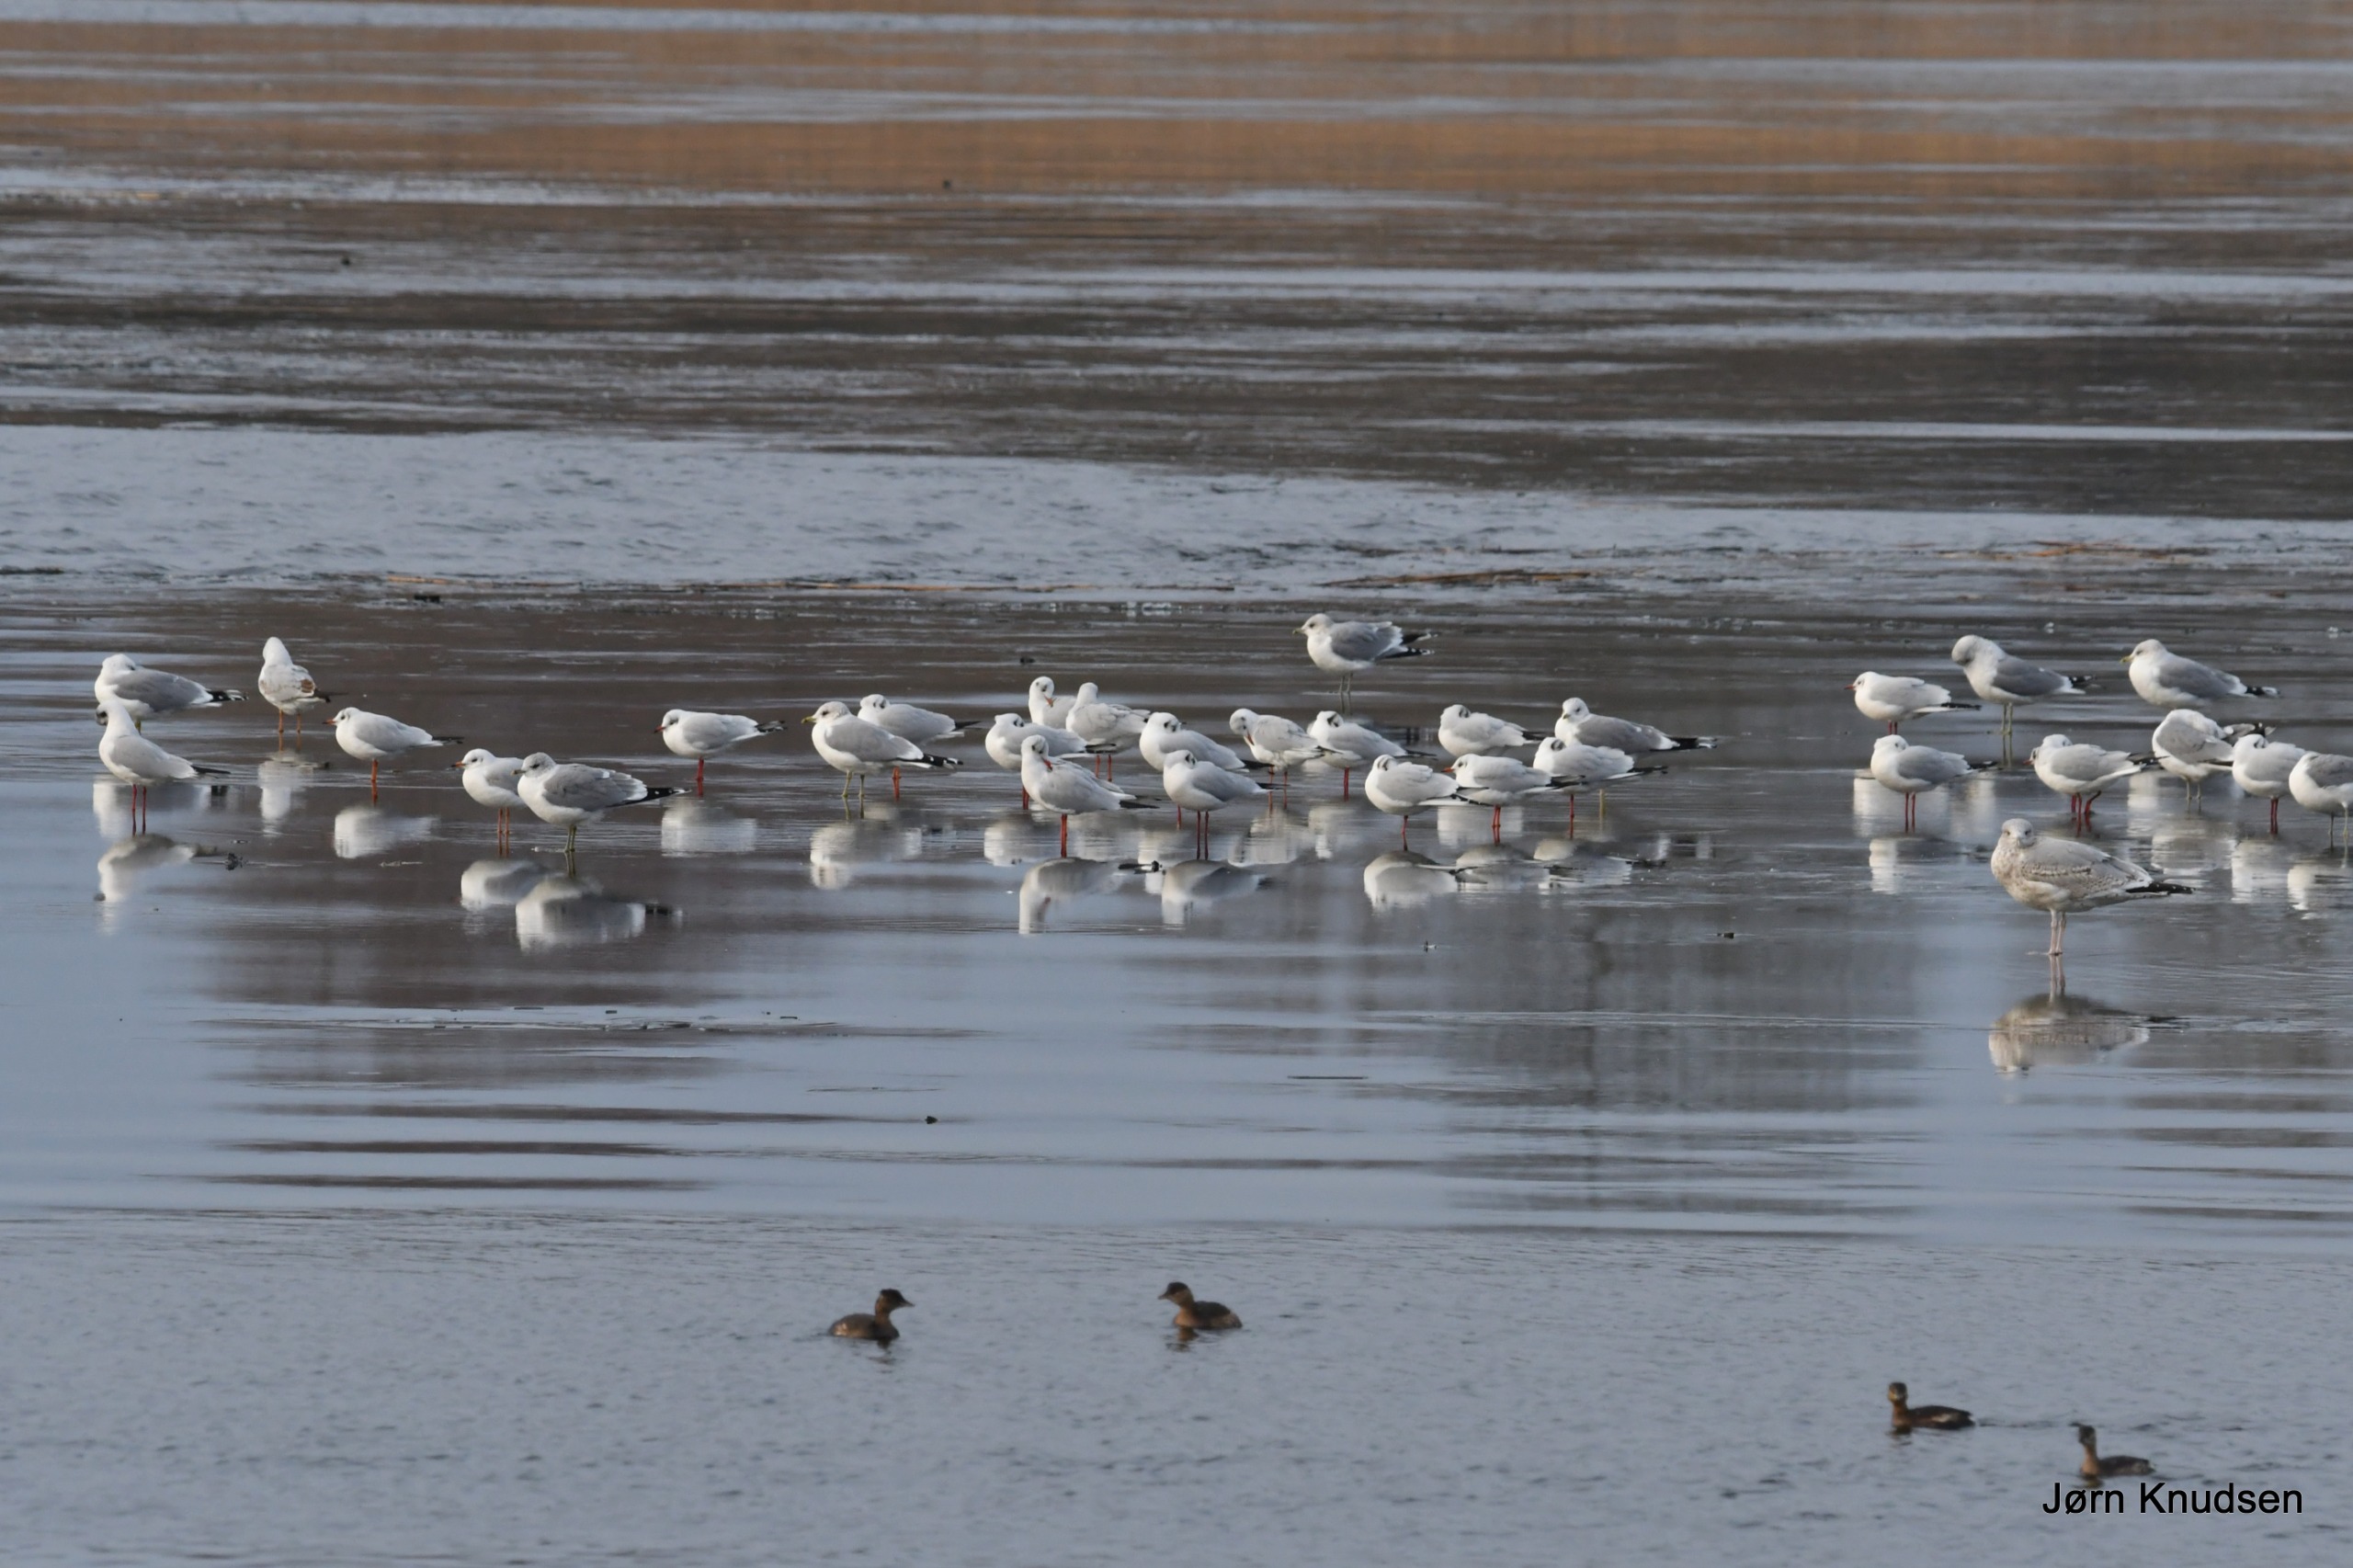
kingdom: Animalia
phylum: Chordata
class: Aves
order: Podicipediformes
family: Podicipedidae
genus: Tachybaptus
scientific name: Tachybaptus ruficollis
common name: Lille lappedykker
